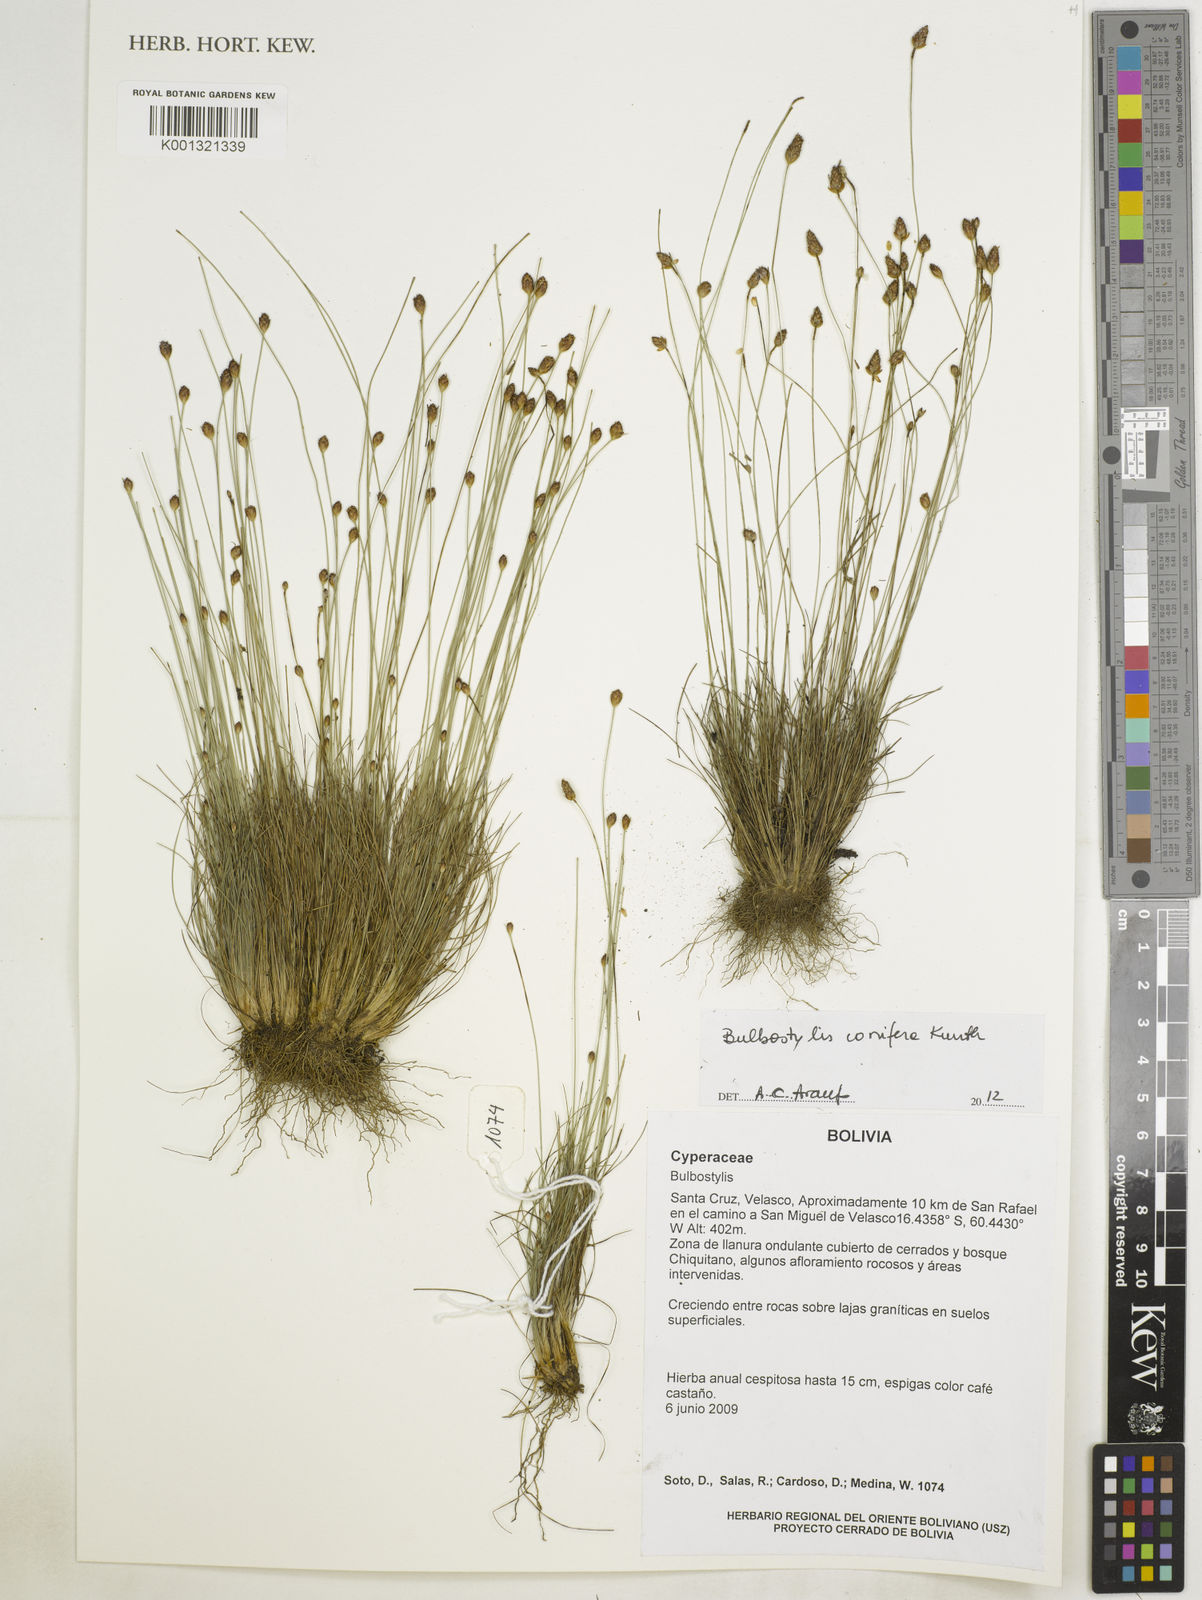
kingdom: Plantae
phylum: Tracheophyta
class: Liliopsida
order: Poales
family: Cyperaceae
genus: Bulbostylis
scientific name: Bulbostylis conifera
